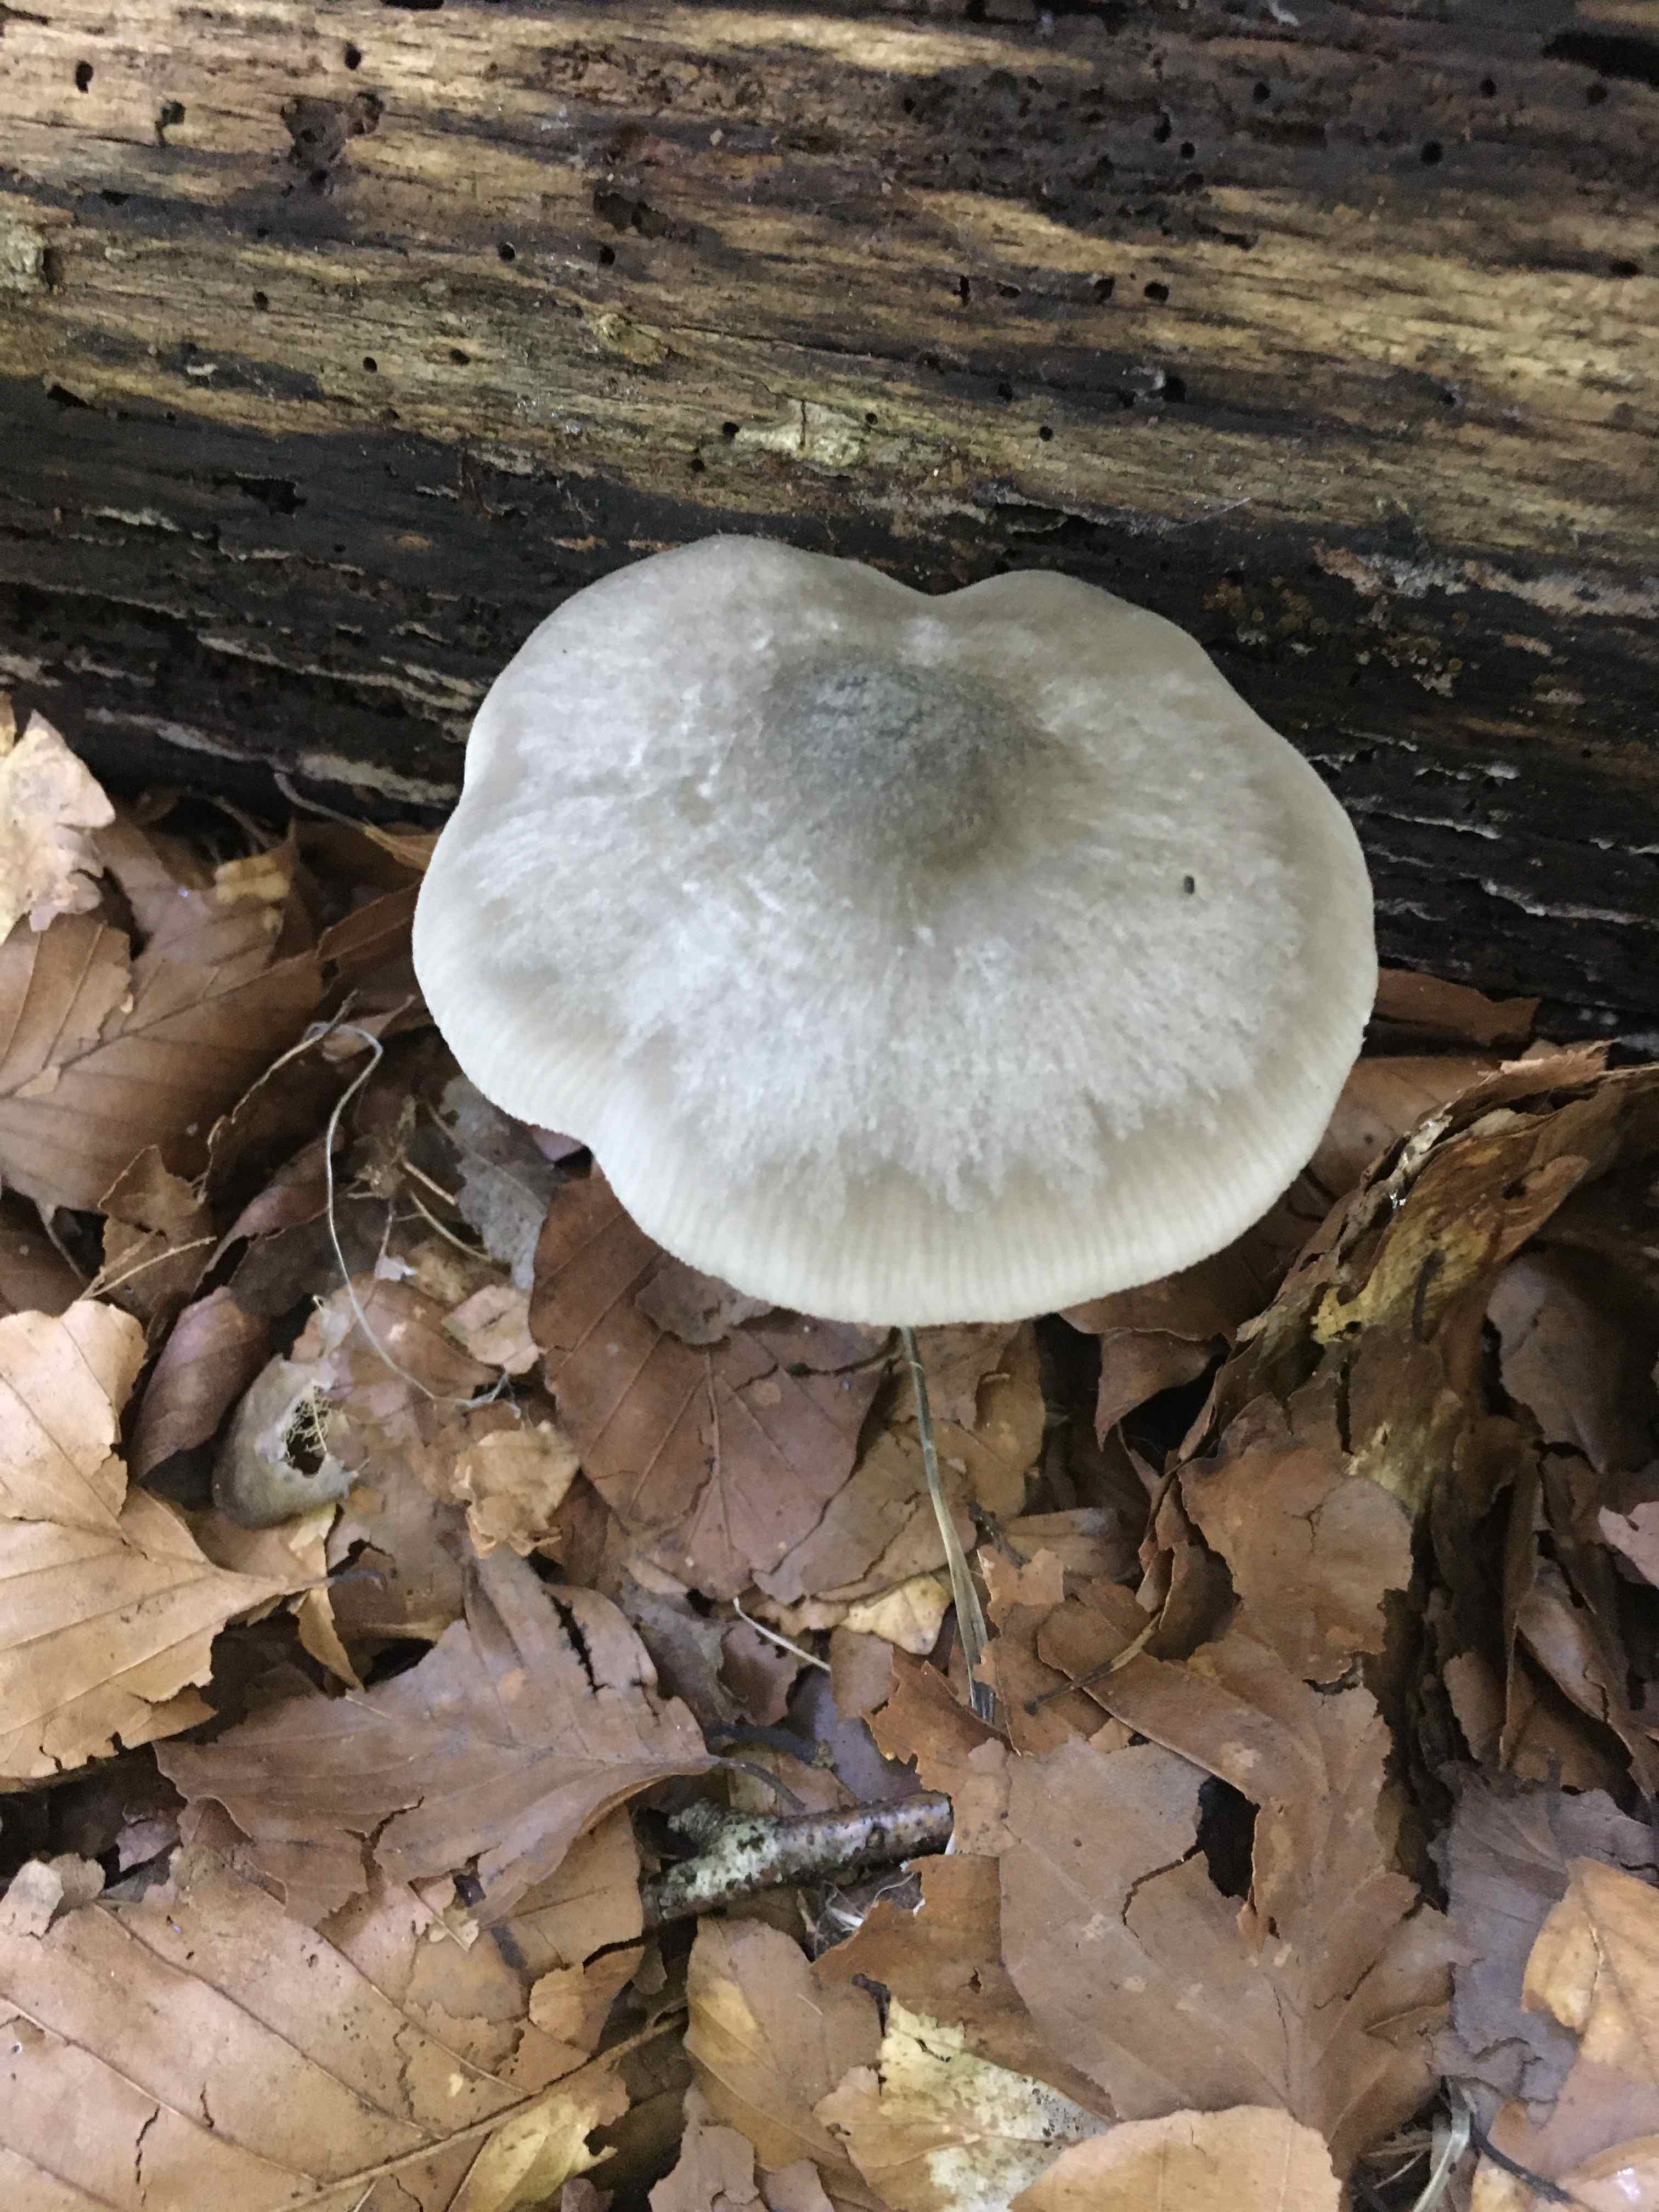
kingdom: Fungi
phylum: Basidiomycota
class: Agaricomycetes
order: Agaricales
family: Pluteaceae
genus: Pluteus
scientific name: Pluteus salicinus
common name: stiv skærmhat
